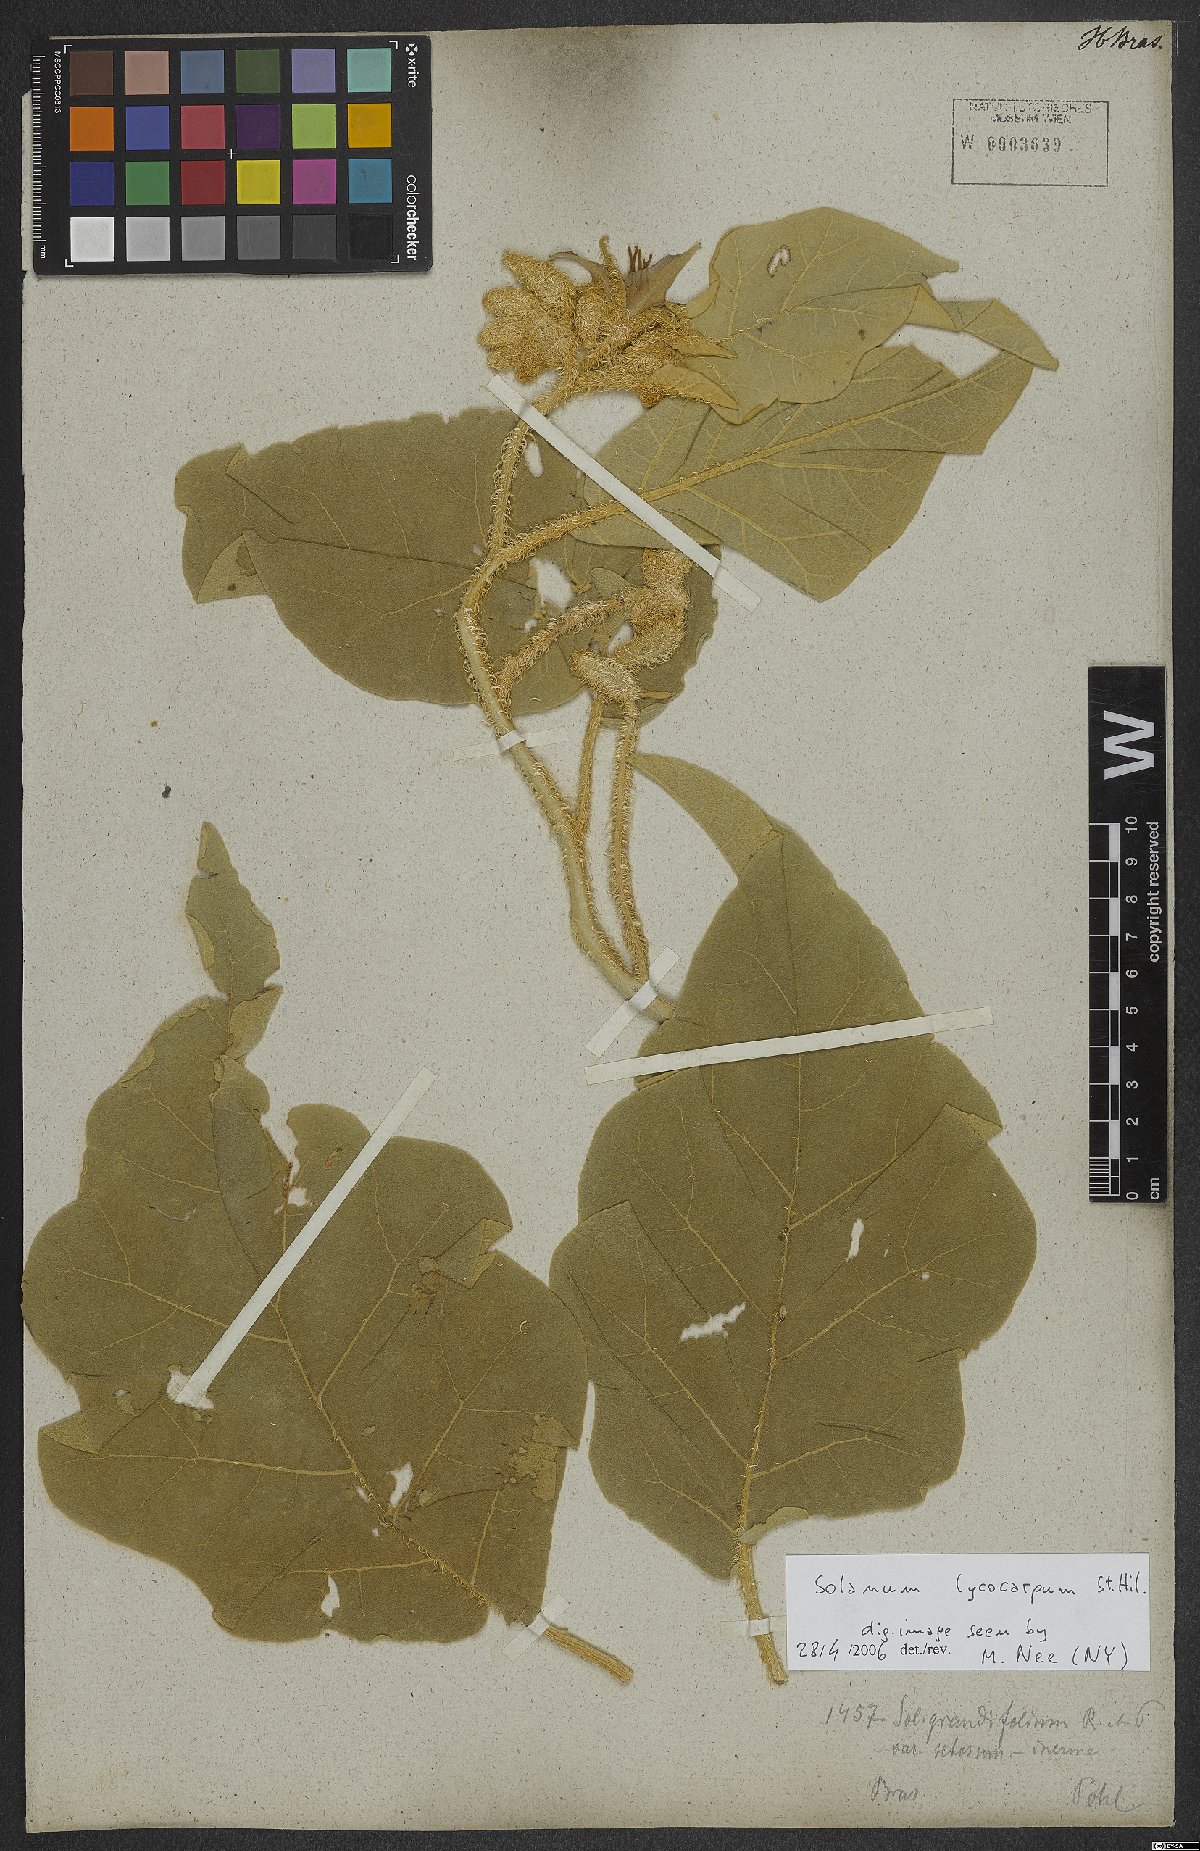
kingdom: Plantae
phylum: Tracheophyta
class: Magnoliopsida
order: Solanales
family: Solanaceae
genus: Solanum
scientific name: Solanum falciforme
